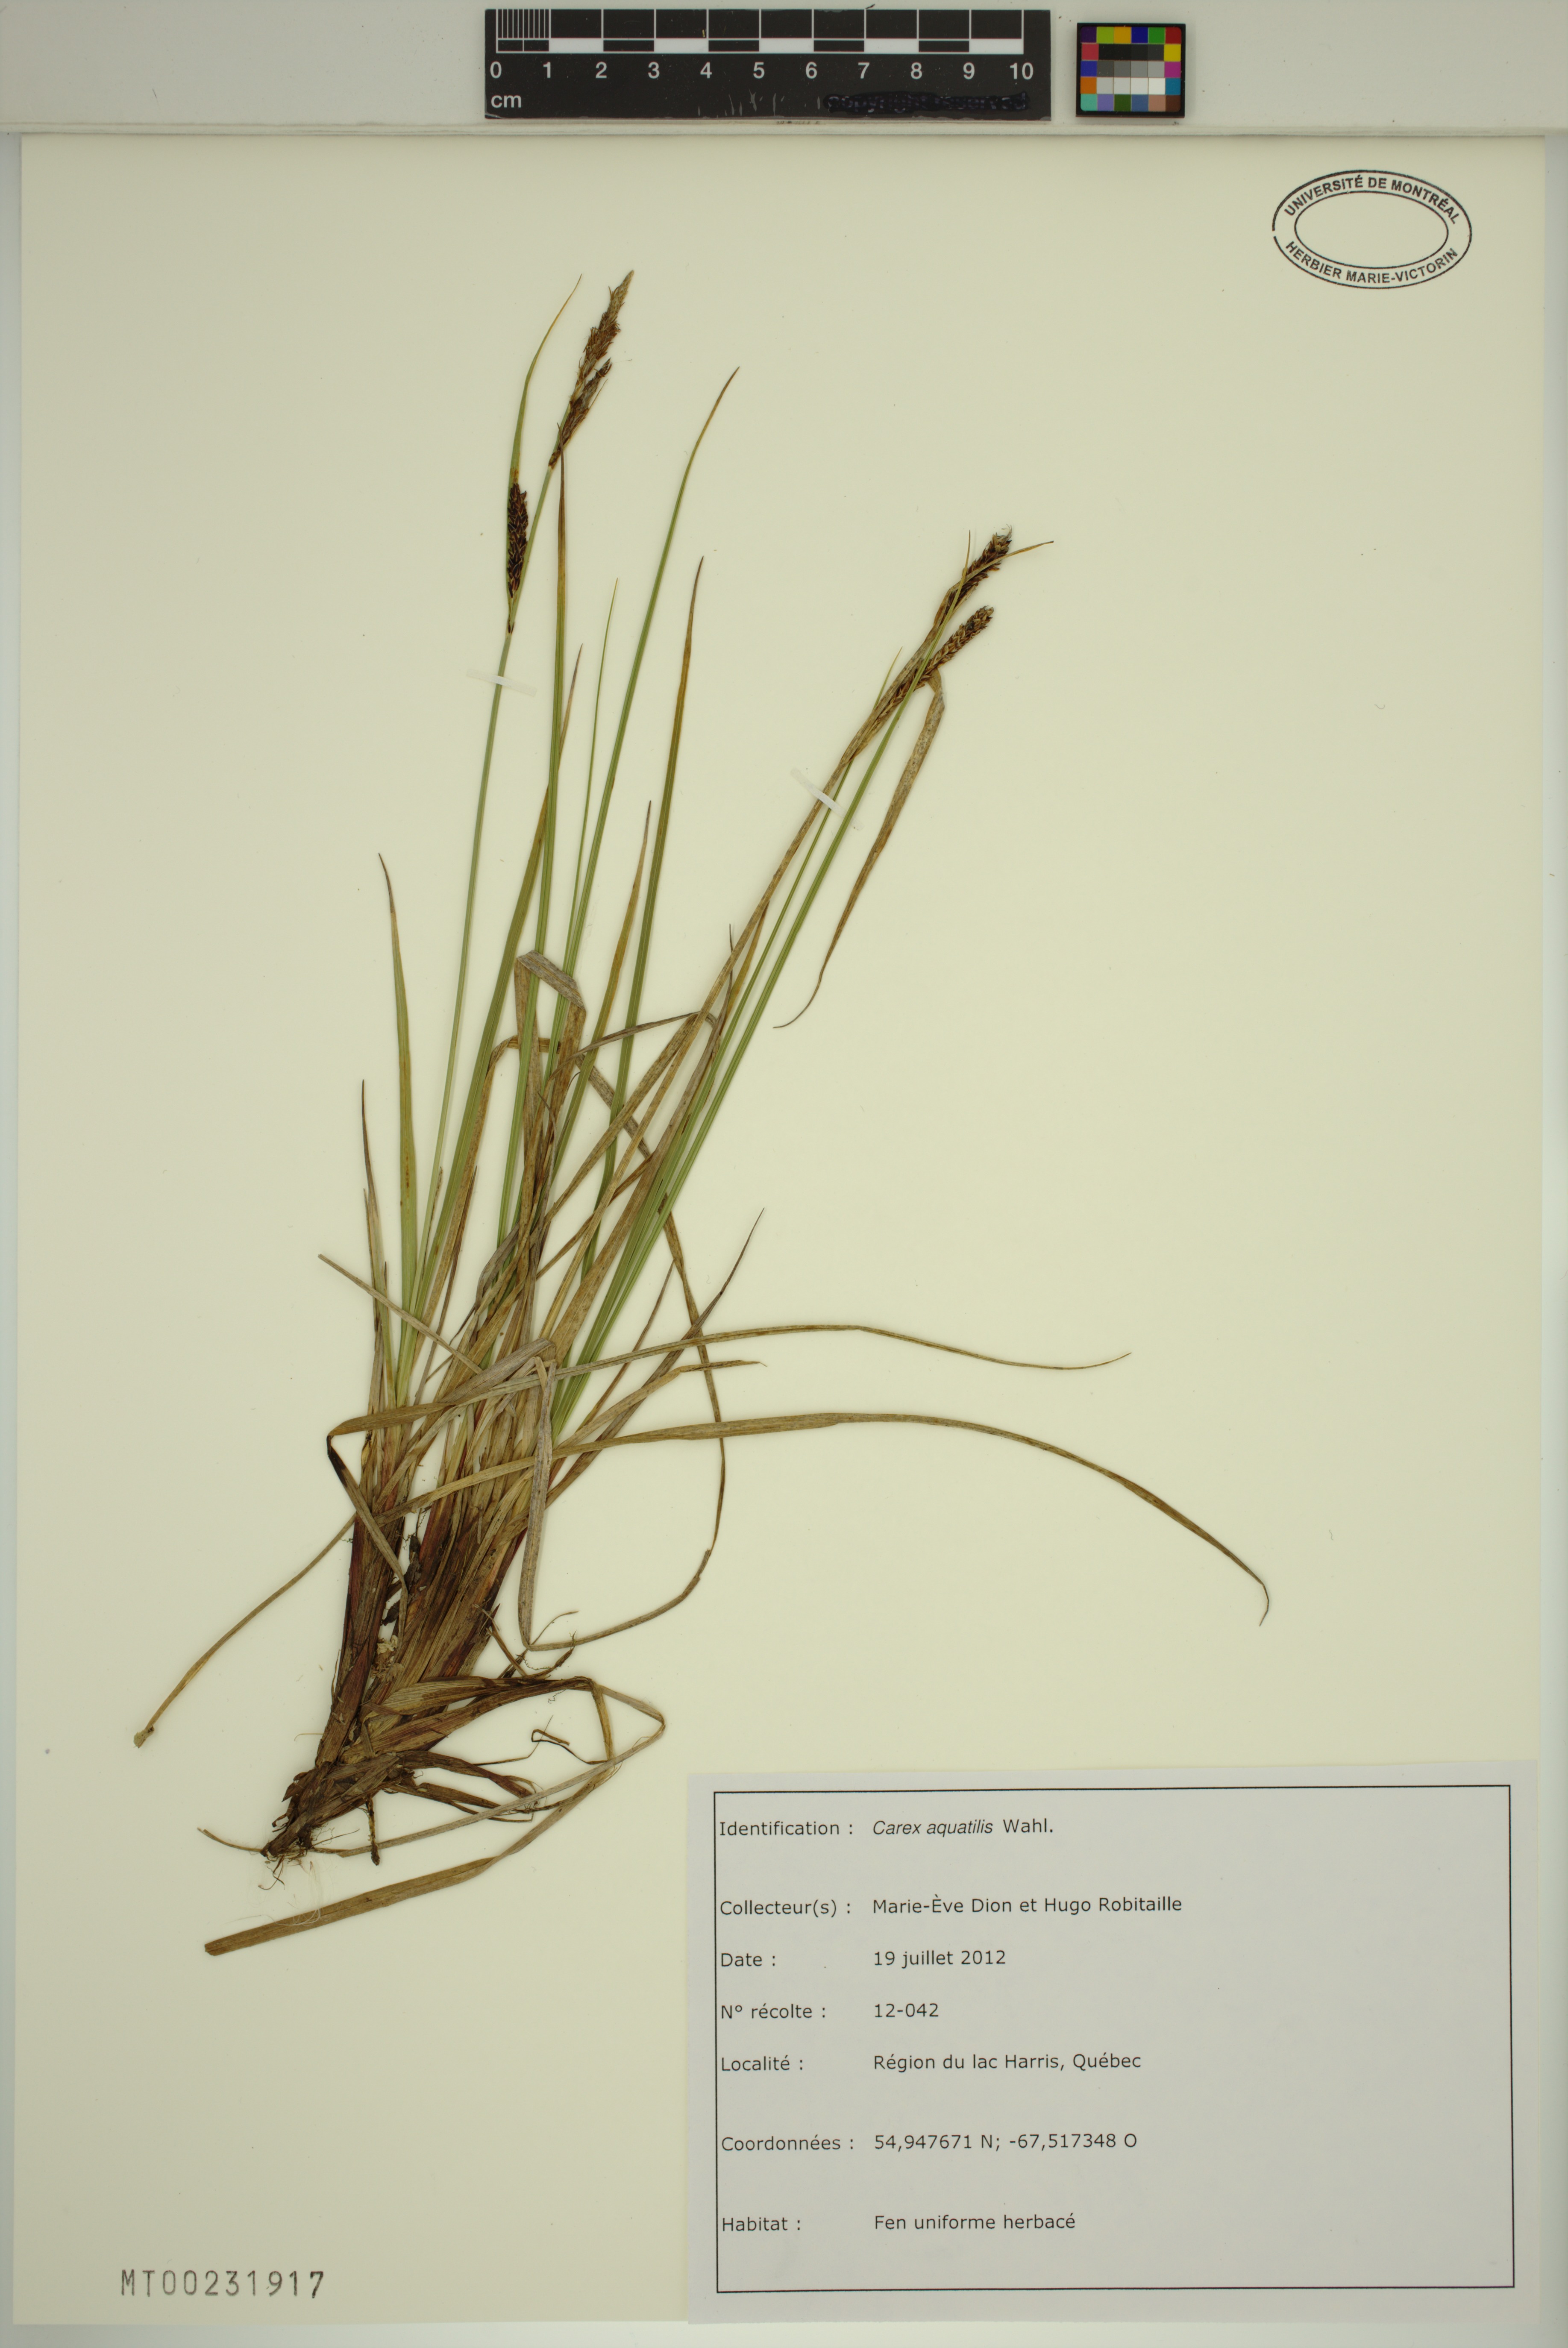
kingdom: Plantae
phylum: Tracheophyta
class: Liliopsida
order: Poales
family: Cyperaceae
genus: Carex
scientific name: Carex aquatilis
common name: Water sedge
